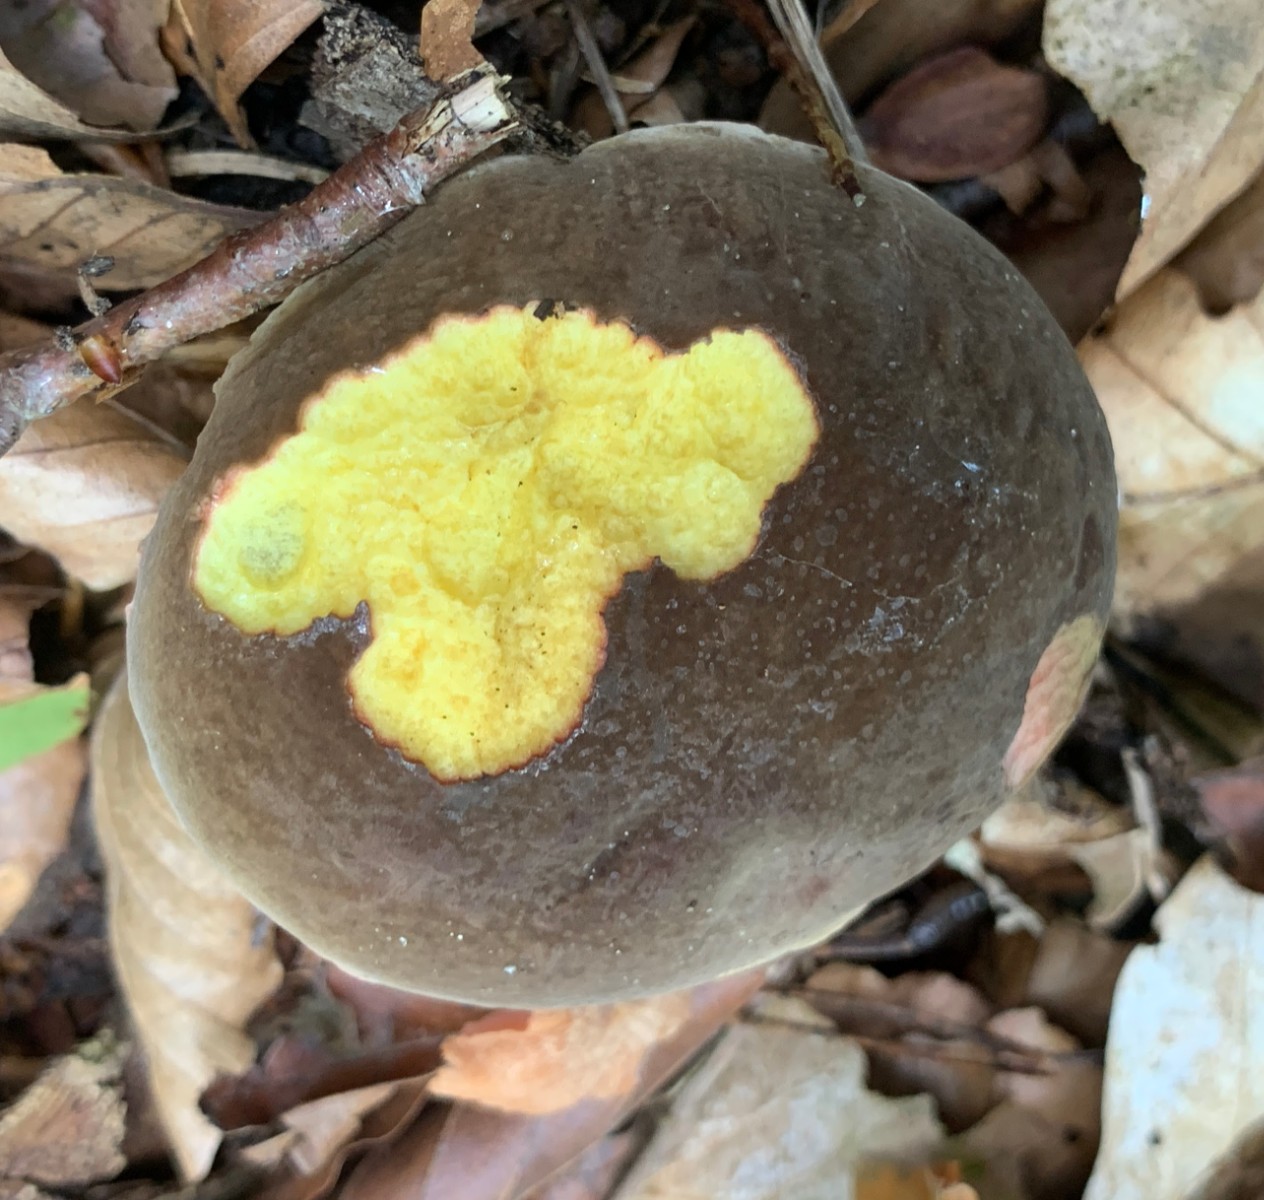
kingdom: Fungi
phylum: Basidiomycota
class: Agaricomycetes
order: Boletales
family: Boletaceae
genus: Xerocomellus
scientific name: Xerocomellus pruinatus
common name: dugget rørhat
